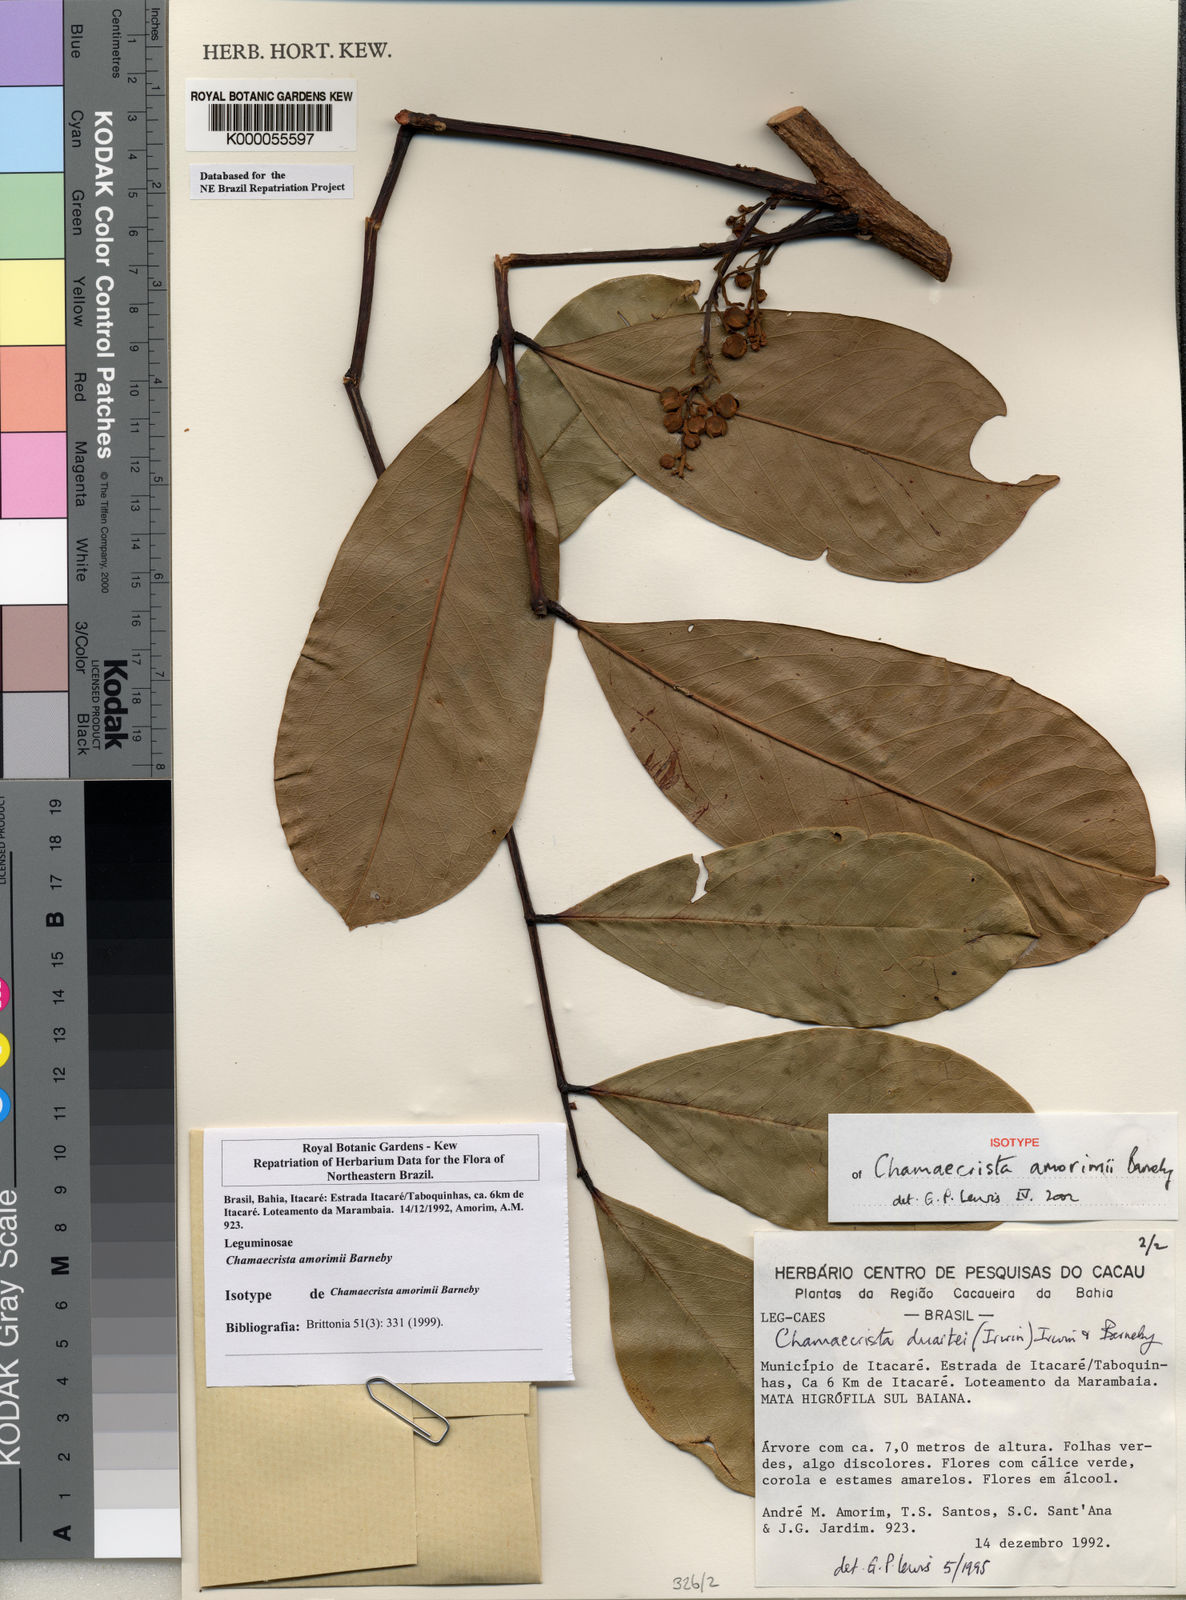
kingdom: Plantae
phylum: Tracheophyta
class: Magnoliopsida
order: Fabales
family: Fabaceae
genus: Chamaecrista
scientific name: Chamaecrista amorimii
